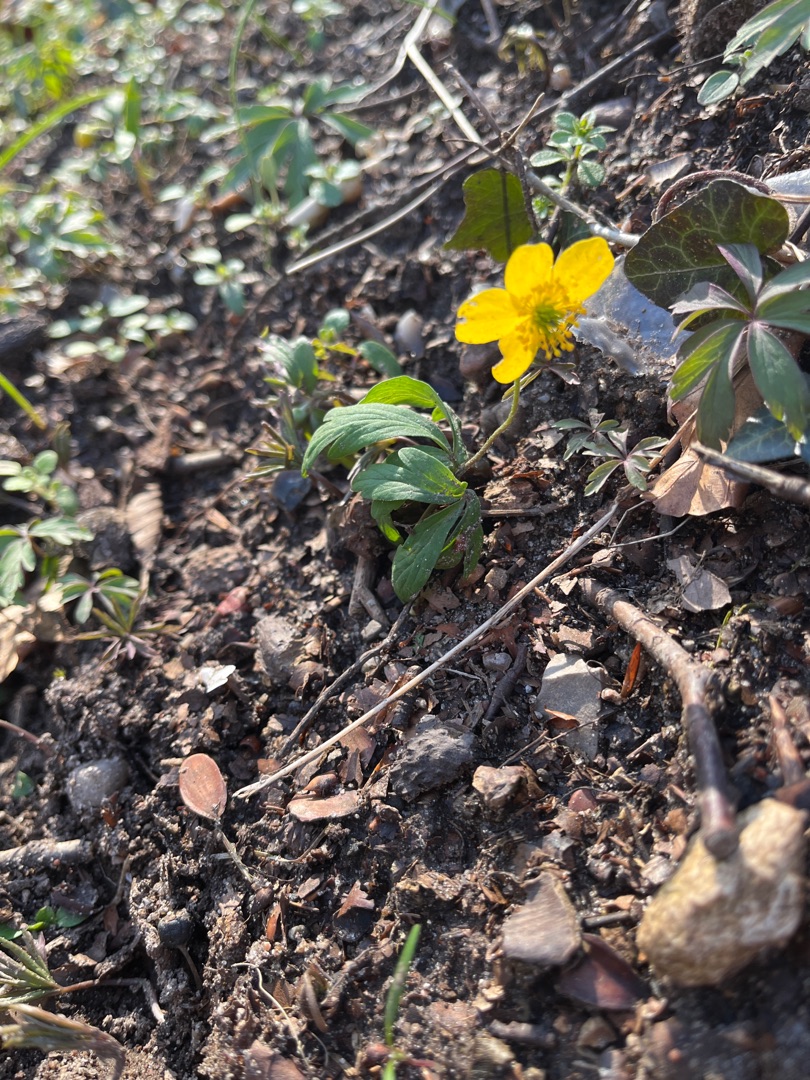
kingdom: Plantae
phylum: Tracheophyta
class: Magnoliopsida
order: Ranunculales
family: Ranunculaceae
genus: Anemone
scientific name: Anemone ranunculoides
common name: Gul anemone
